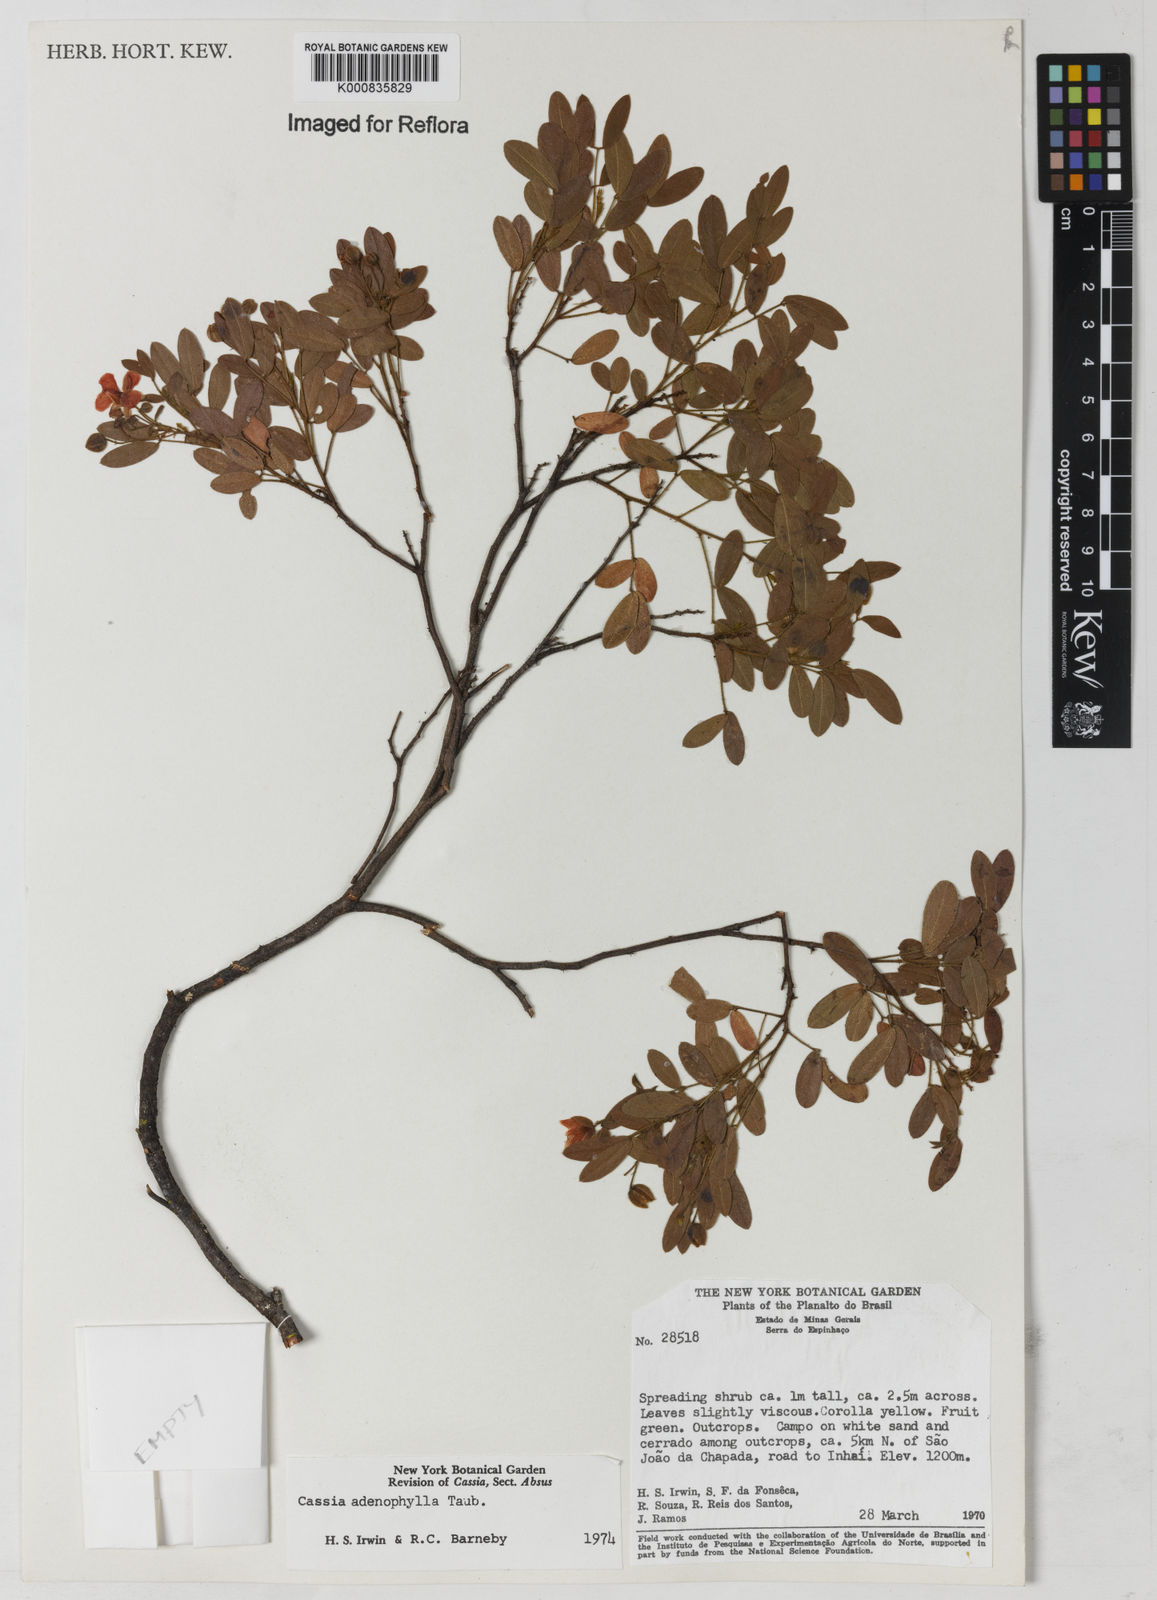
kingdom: Plantae
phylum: Tracheophyta
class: Magnoliopsida
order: Fabales
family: Fabaceae
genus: Chamaecrista
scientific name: Chamaecrista adenophylla
